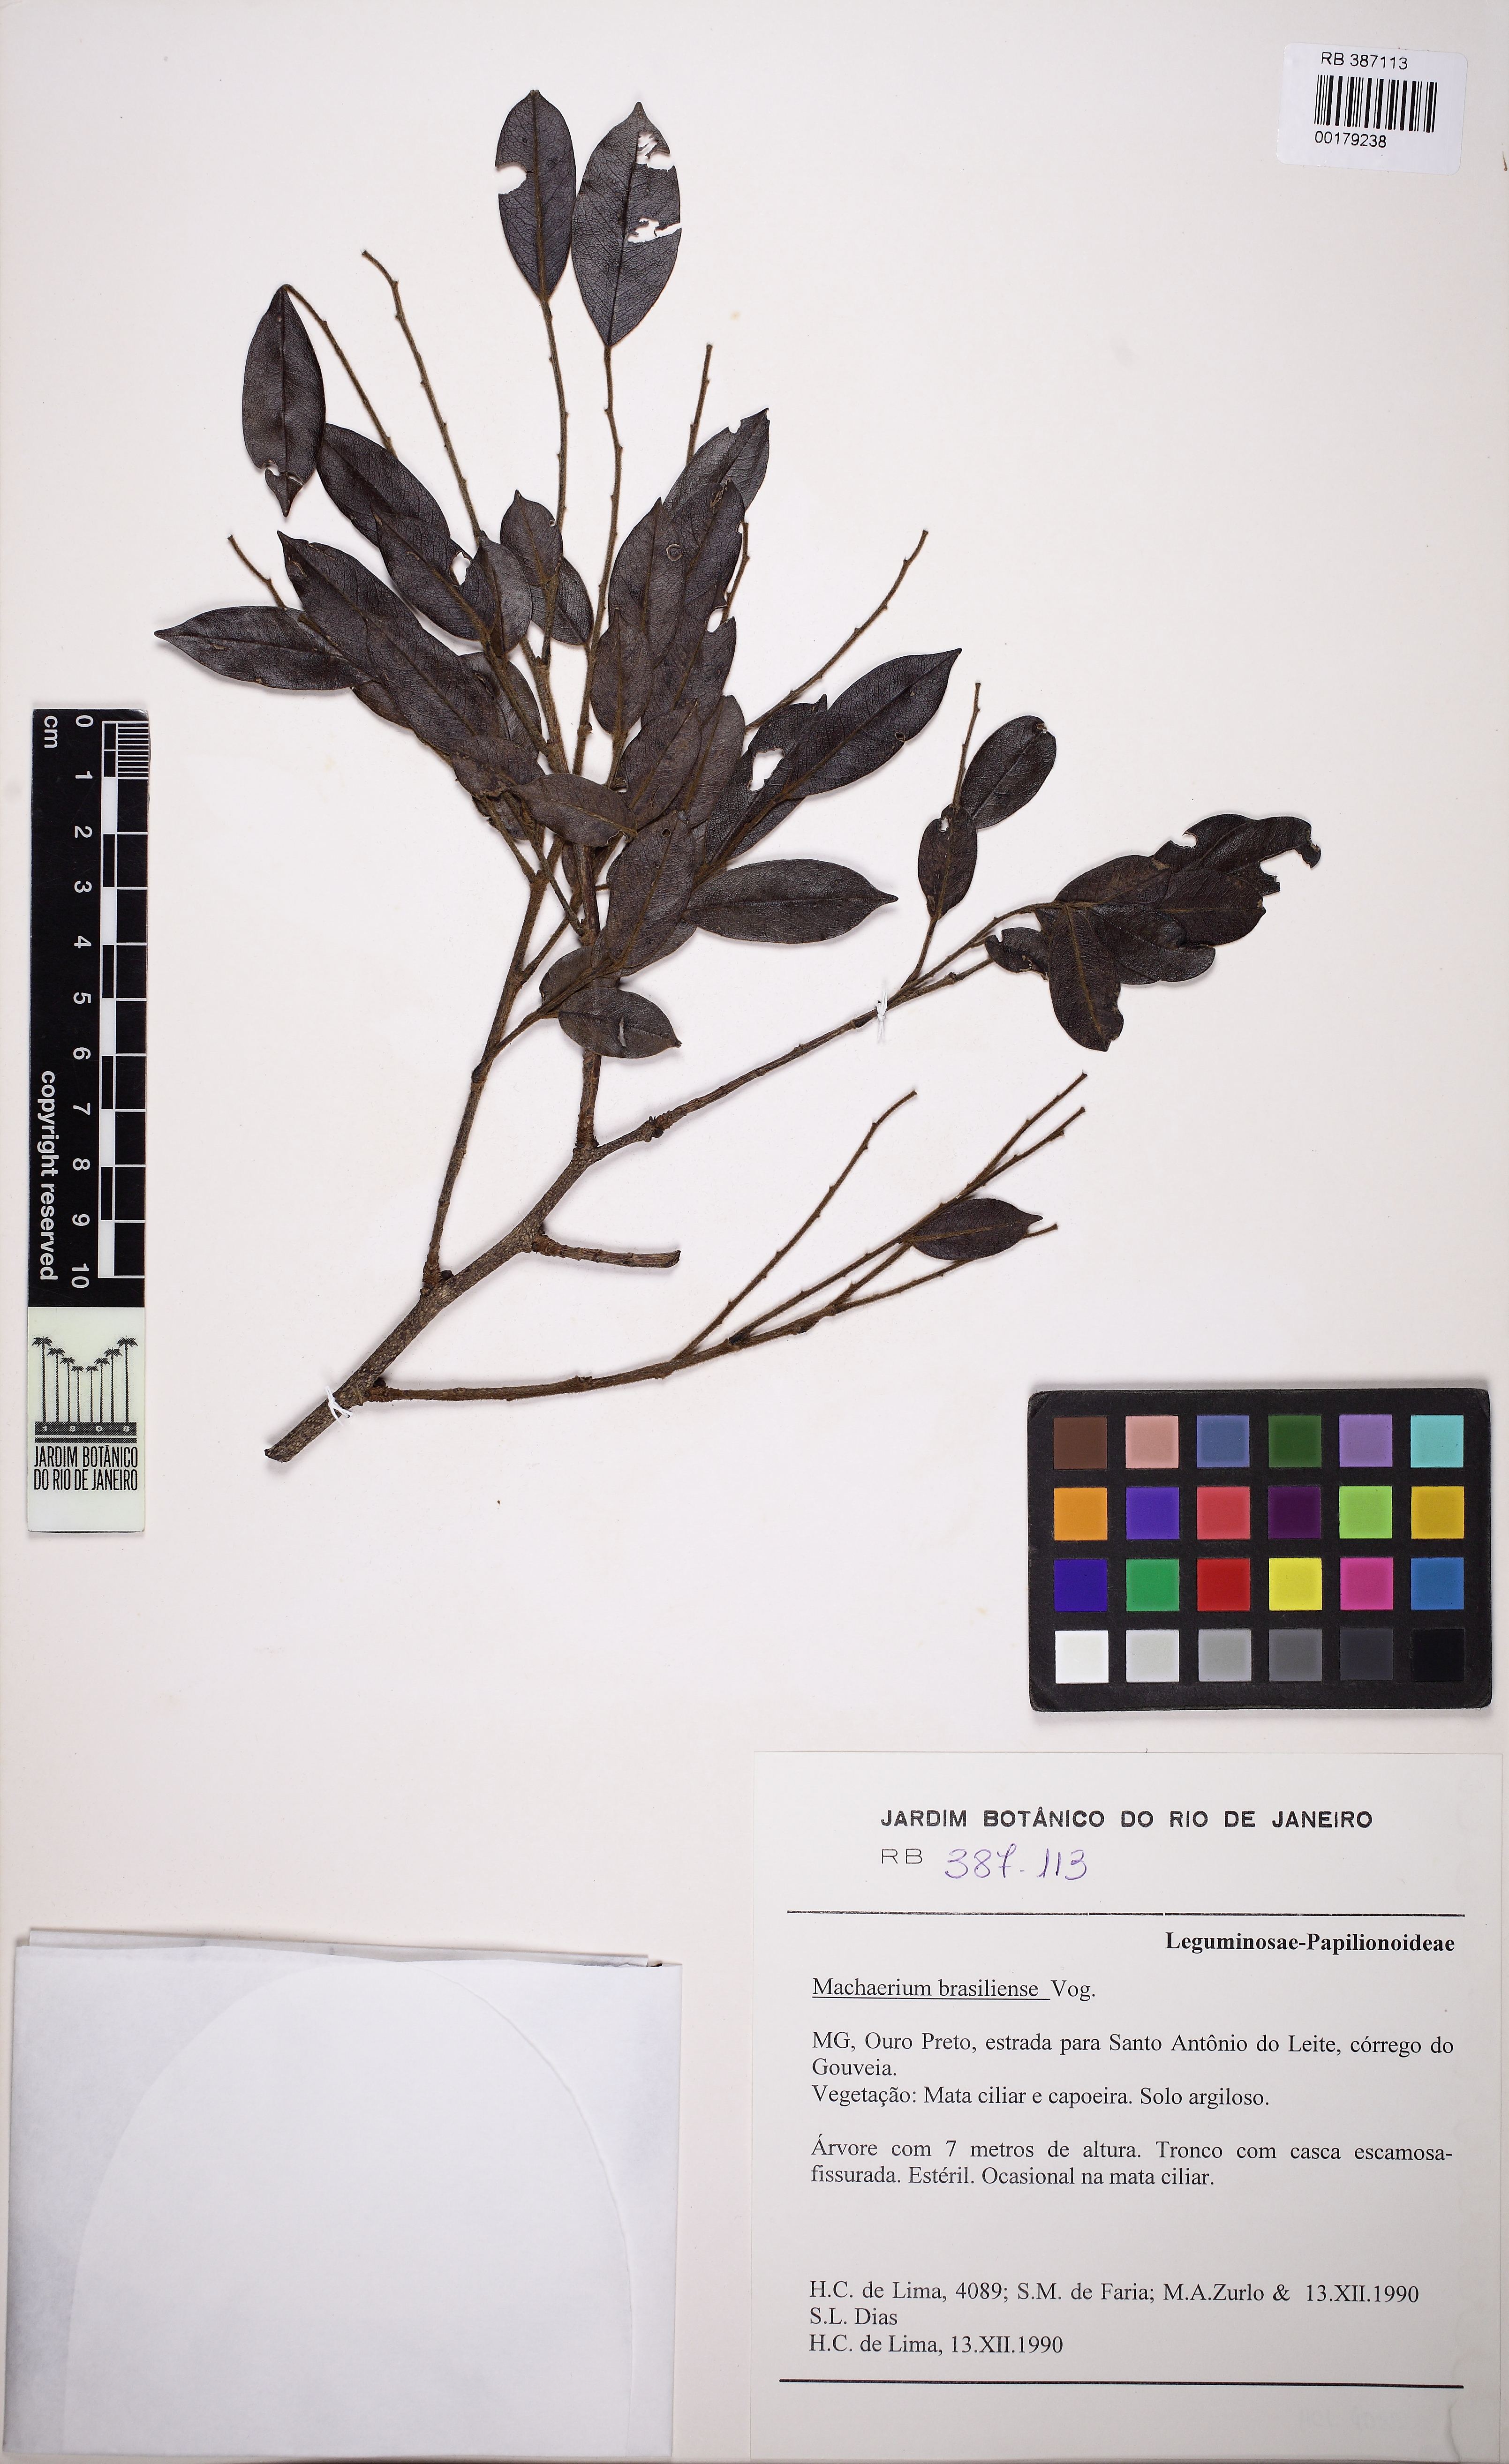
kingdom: Plantae
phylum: Tracheophyta
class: Magnoliopsida
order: Fabales
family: Fabaceae
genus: Machaerium
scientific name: Machaerium brasiliense
